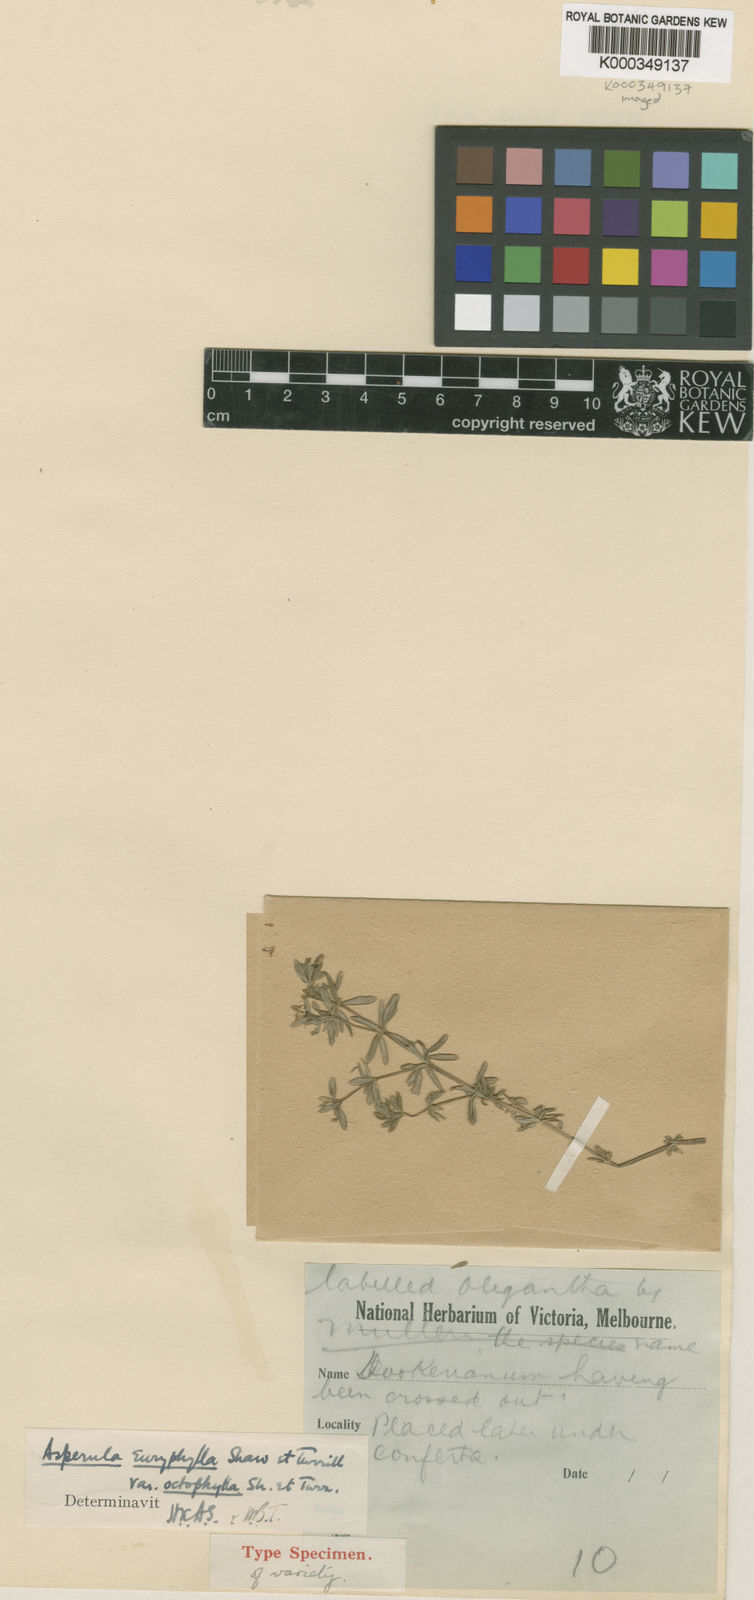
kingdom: Plantae
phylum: Tracheophyta
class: Magnoliopsida
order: Gentianales
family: Rubiaceae
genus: Asperula
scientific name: Asperula polymera
